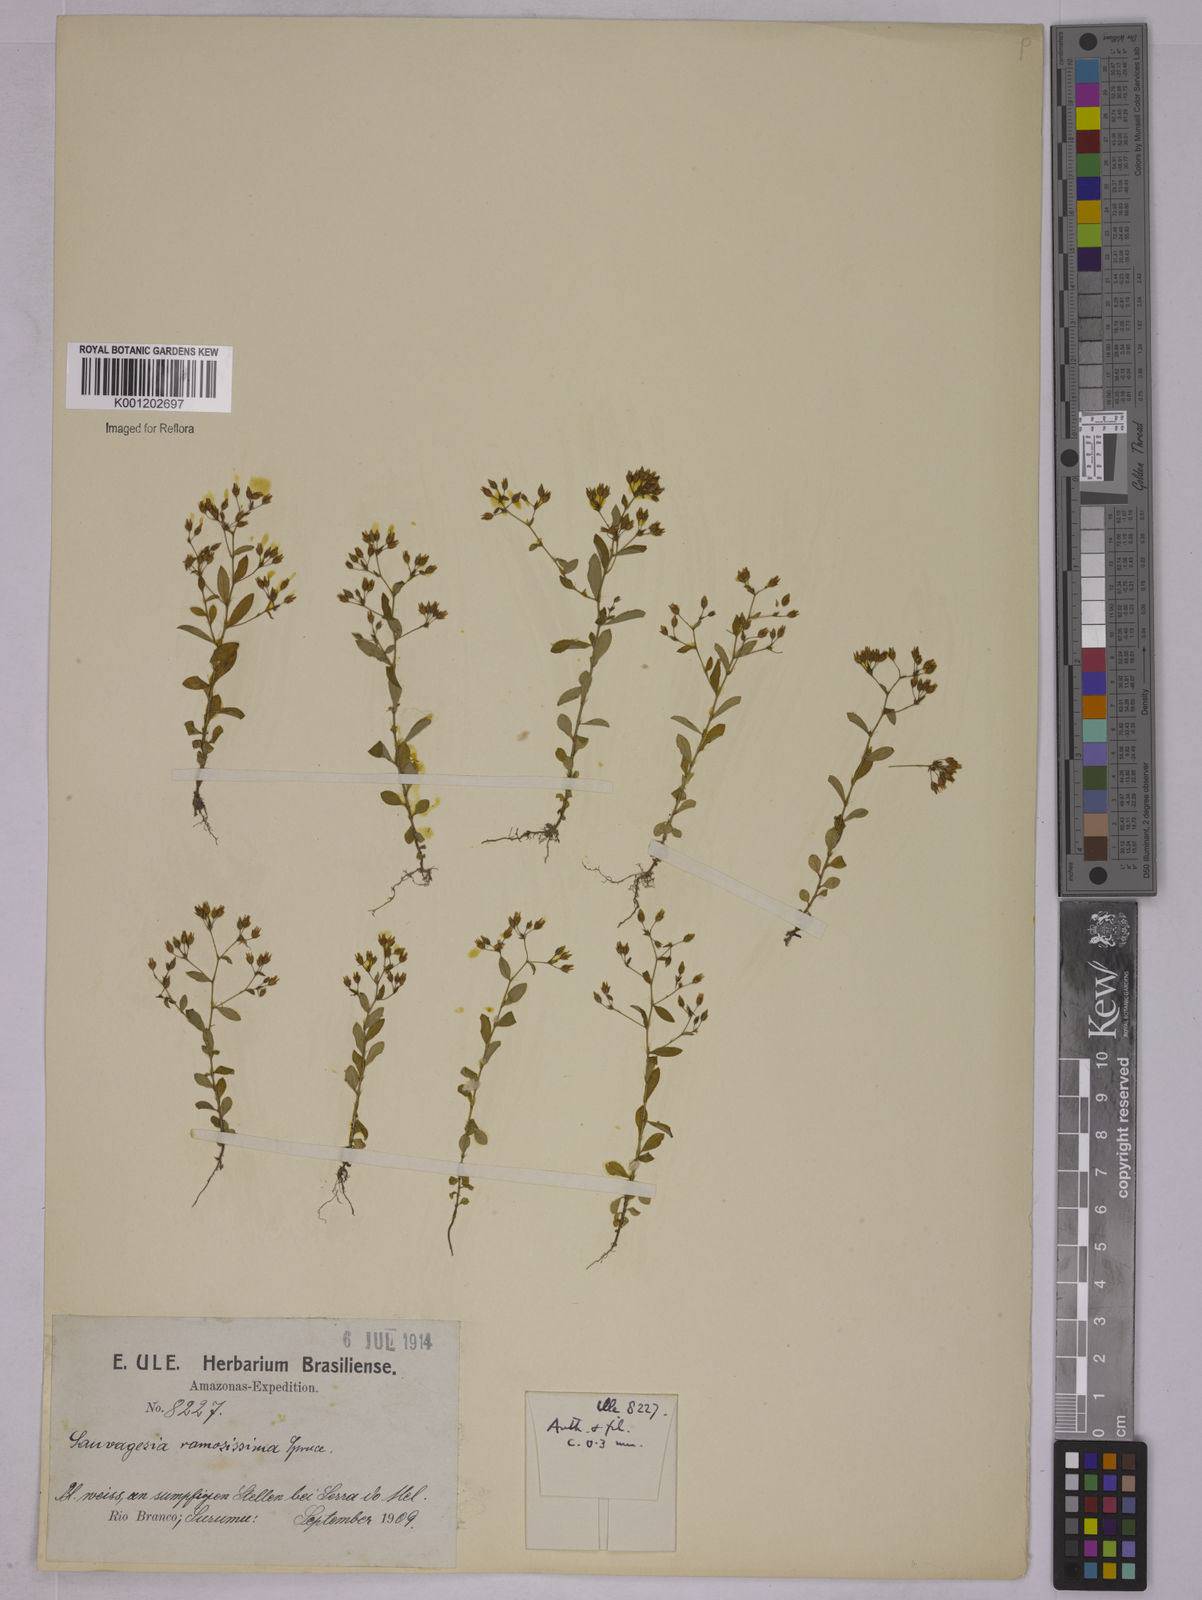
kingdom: Plantae
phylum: Tracheophyta
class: Magnoliopsida
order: Malpighiales
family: Ochnaceae
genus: Sauvagesia
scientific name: Sauvagesia ramosissima
